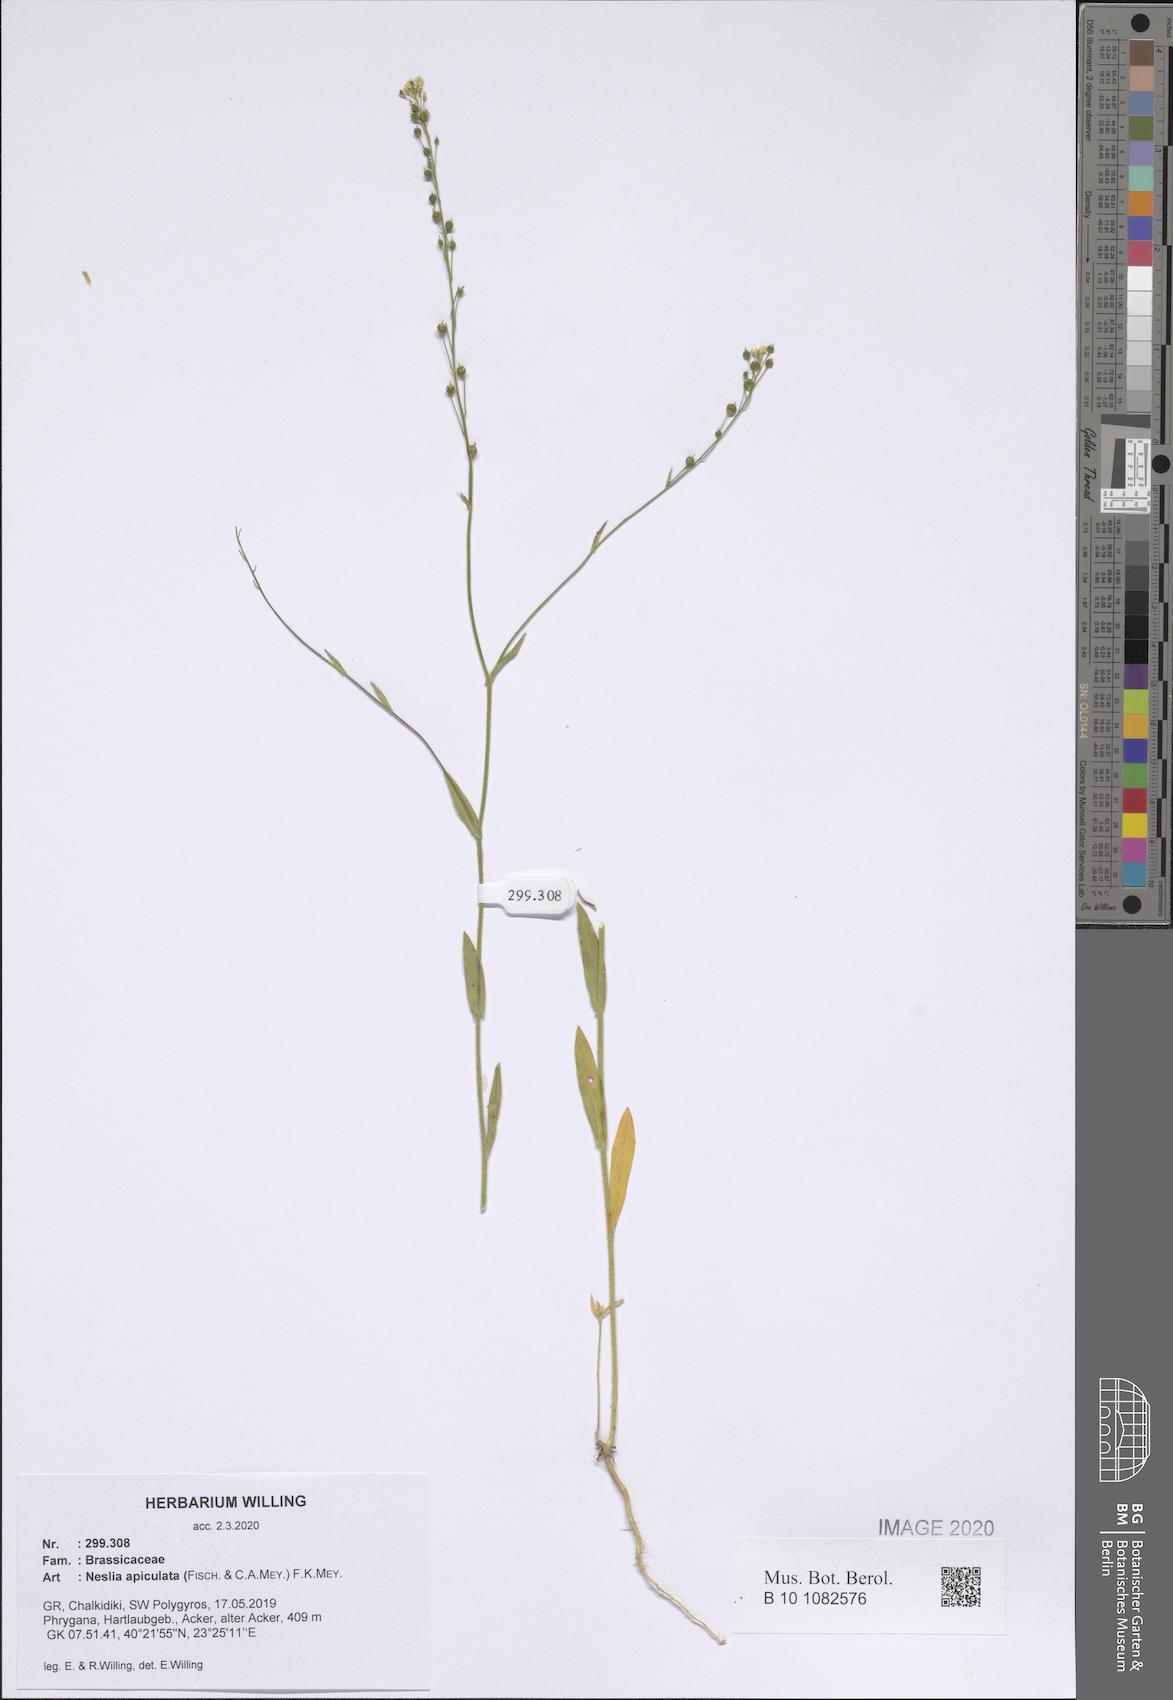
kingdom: Plantae
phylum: Tracheophyta
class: Magnoliopsida
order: Brassicales
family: Brassicaceae
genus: Neslia
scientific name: Neslia paniculata
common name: Ball mustard
